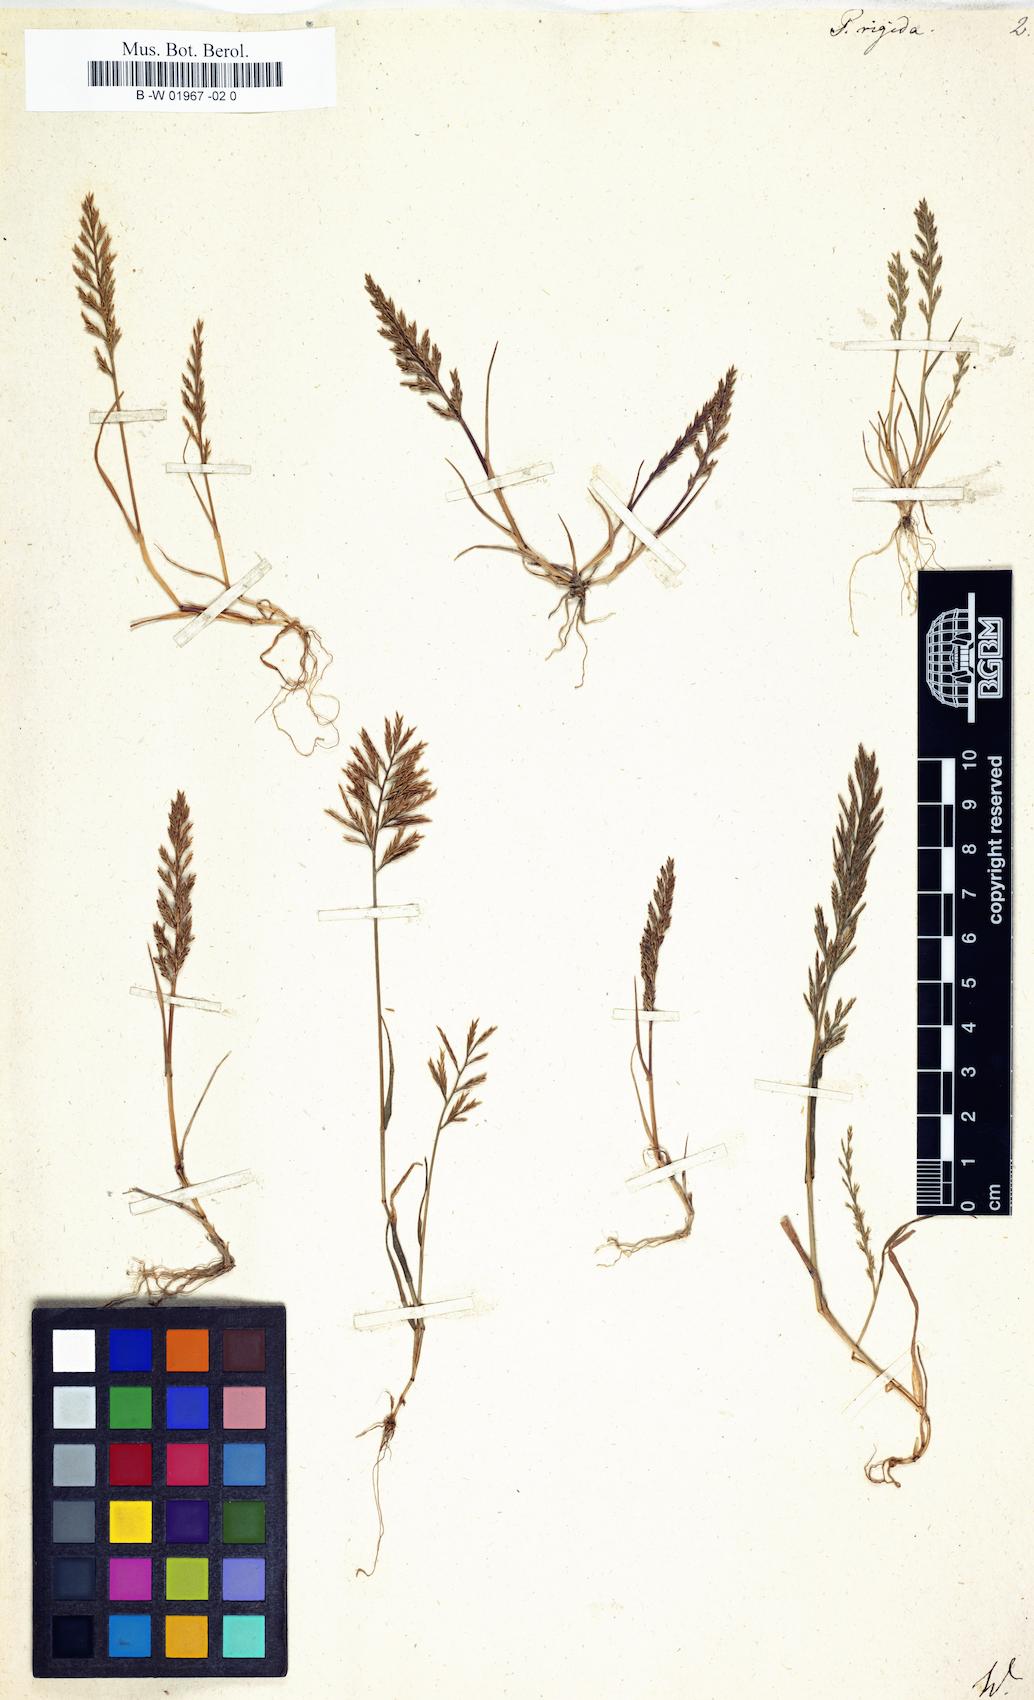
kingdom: Plantae
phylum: Tracheophyta
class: Liliopsida
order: Poales
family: Poaceae
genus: Poa
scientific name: Poa rigida
